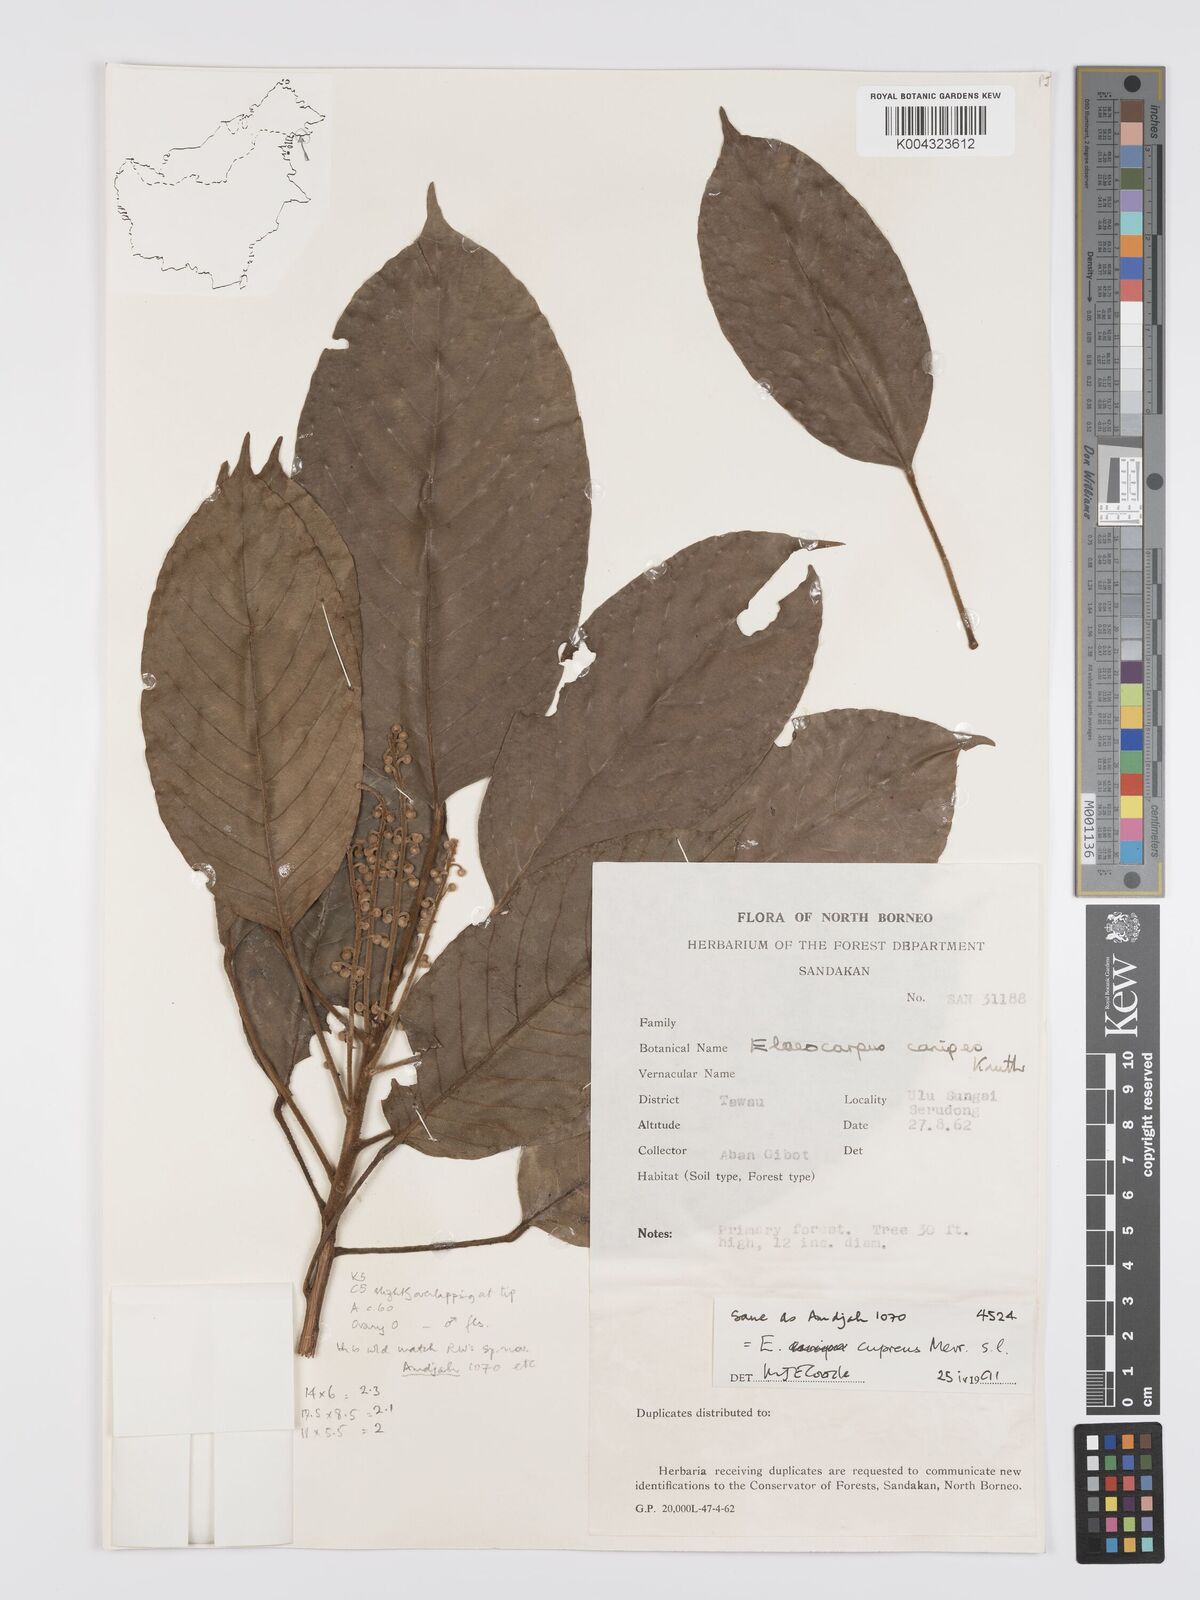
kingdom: Plantae
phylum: Tracheophyta
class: Magnoliopsida
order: Oxalidales
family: Elaeocarpaceae
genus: Elaeocarpus
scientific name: Elaeocarpus cupreus
